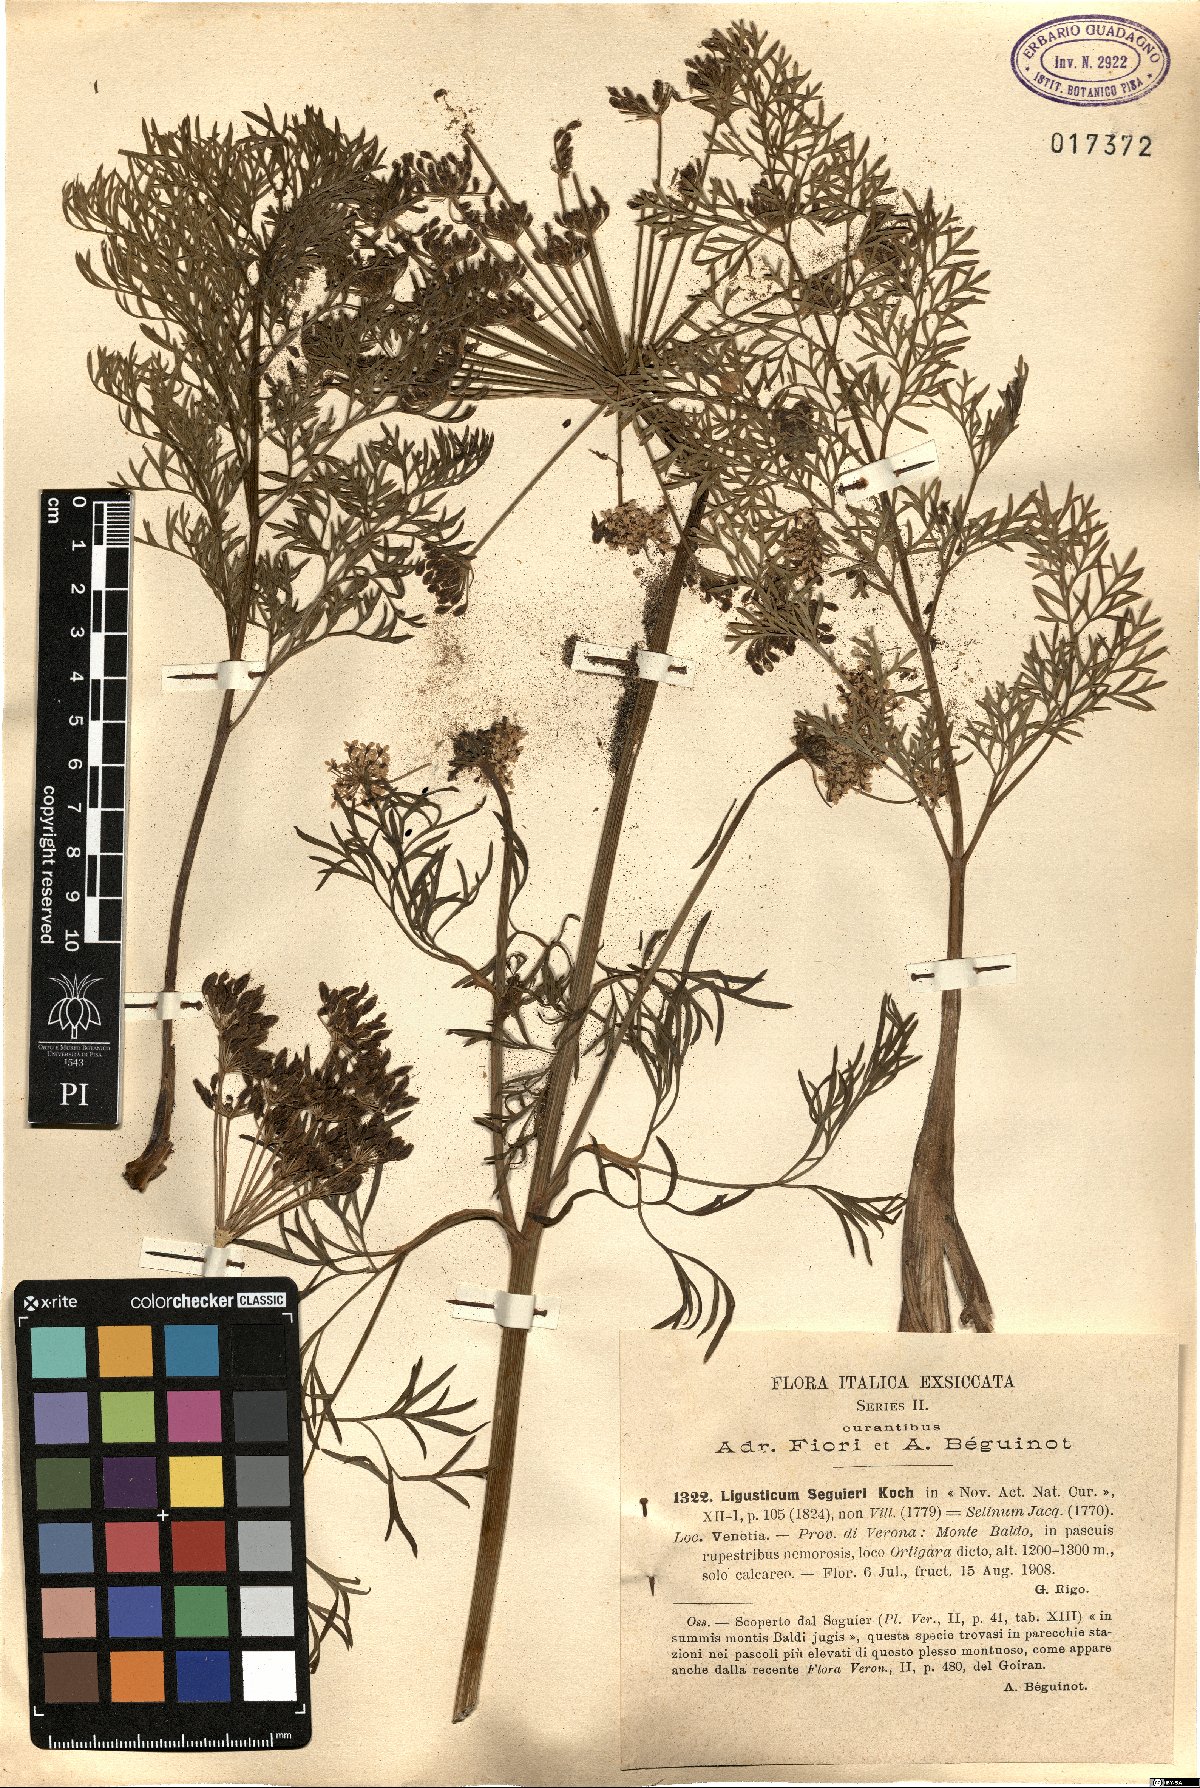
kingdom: Plantae
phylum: Tracheophyta
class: Magnoliopsida
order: Apiales
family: Apiaceae
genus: Coristospermum
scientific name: Coristospermum lucidum
